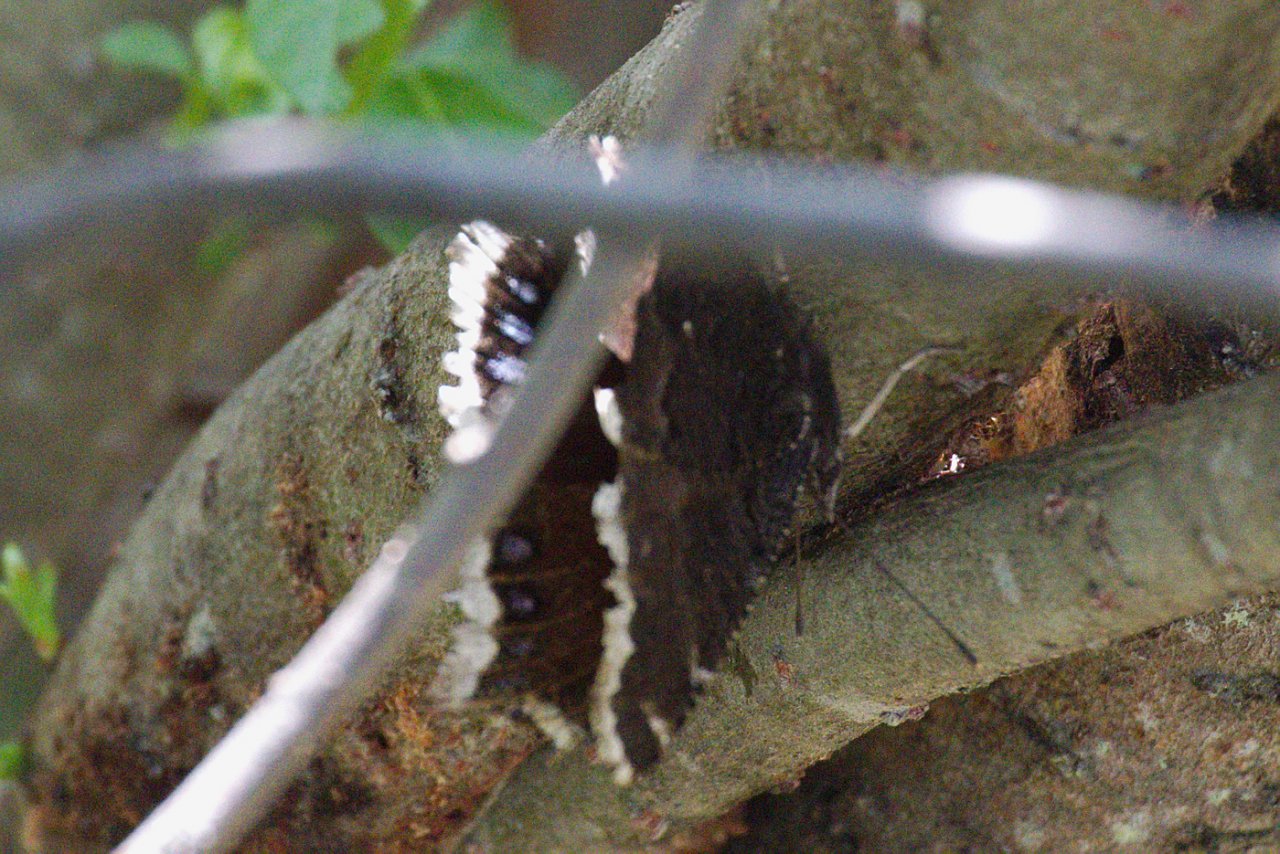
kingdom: Animalia
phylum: Arthropoda
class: Insecta
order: Lepidoptera
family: Nymphalidae
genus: Nymphalis
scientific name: Nymphalis antiopa
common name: Mourning Cloak
